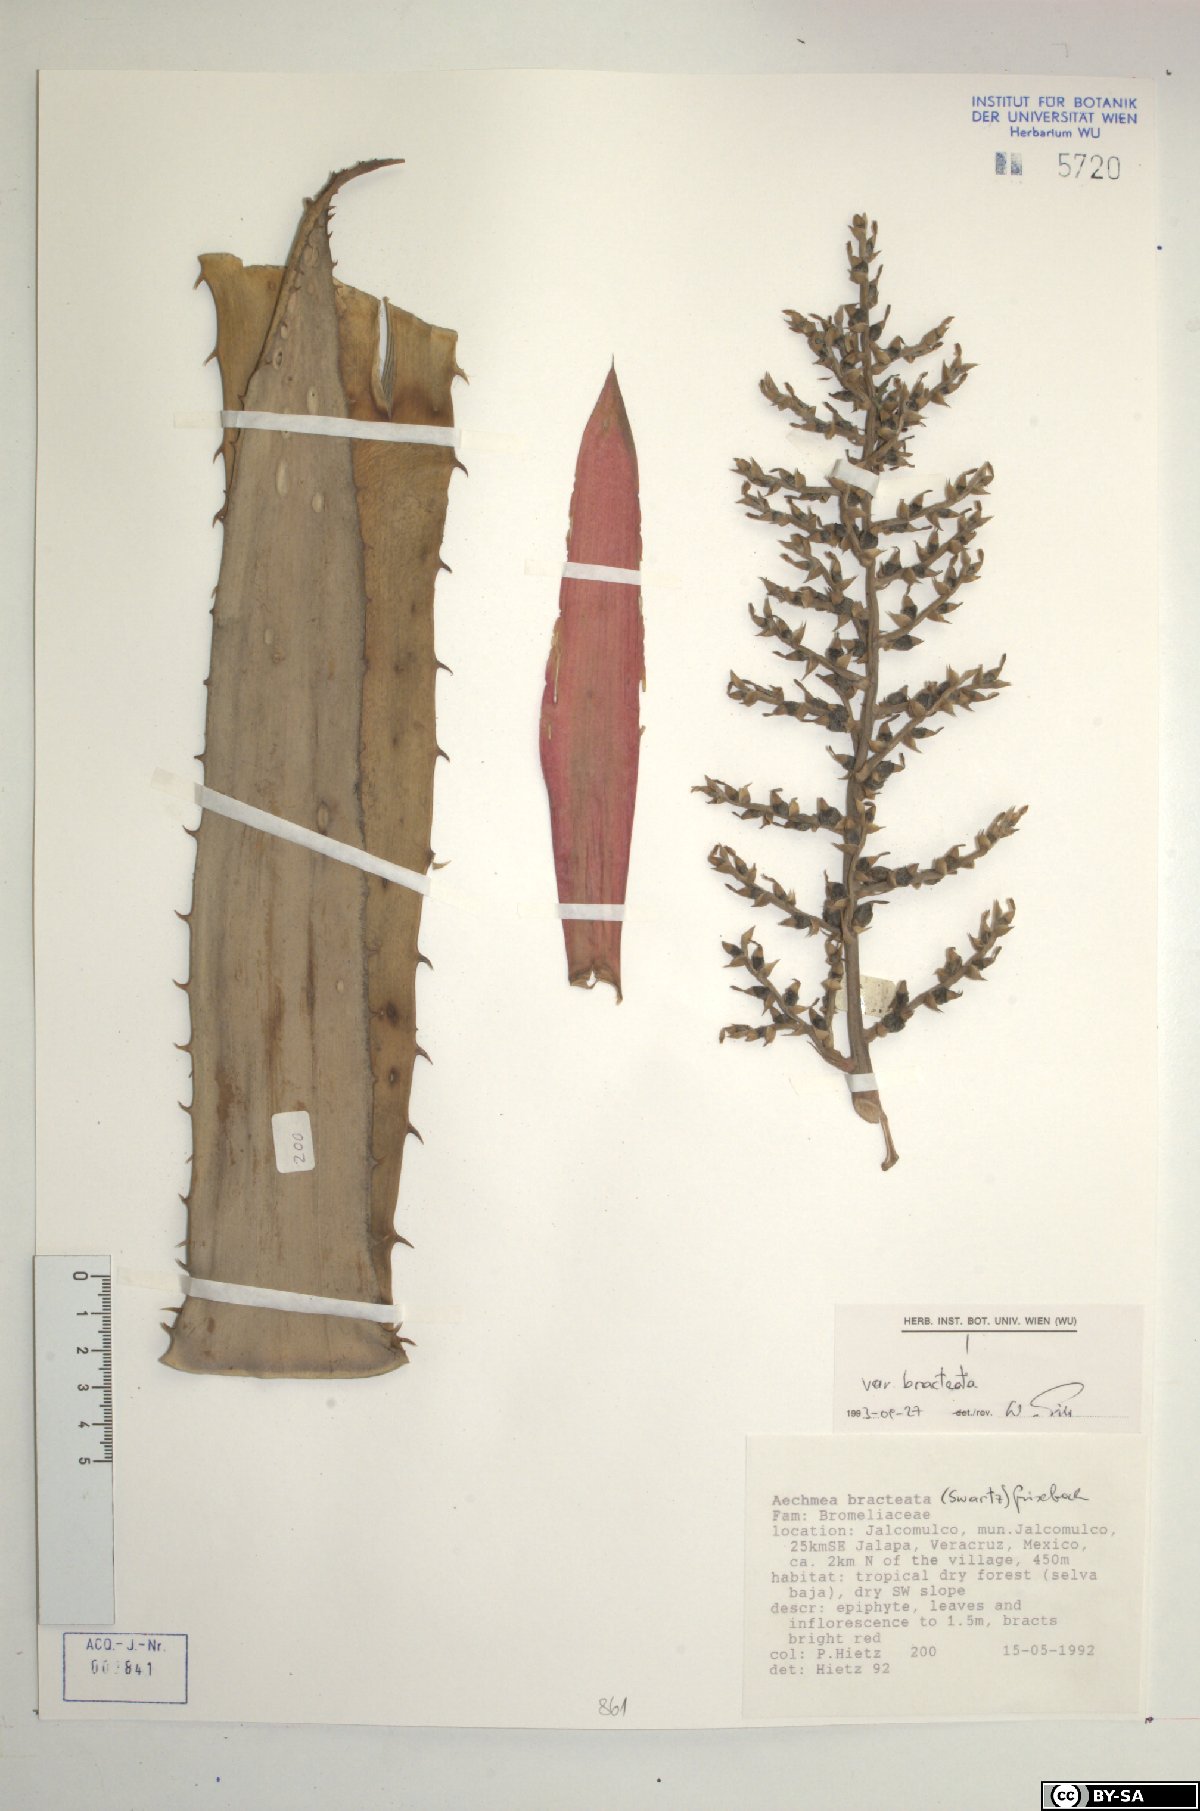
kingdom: Plantae
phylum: Tracheophyta
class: Liliopsida
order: Poales
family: Bromeliaceae
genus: Aechmea
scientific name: Aechmea bracteata
